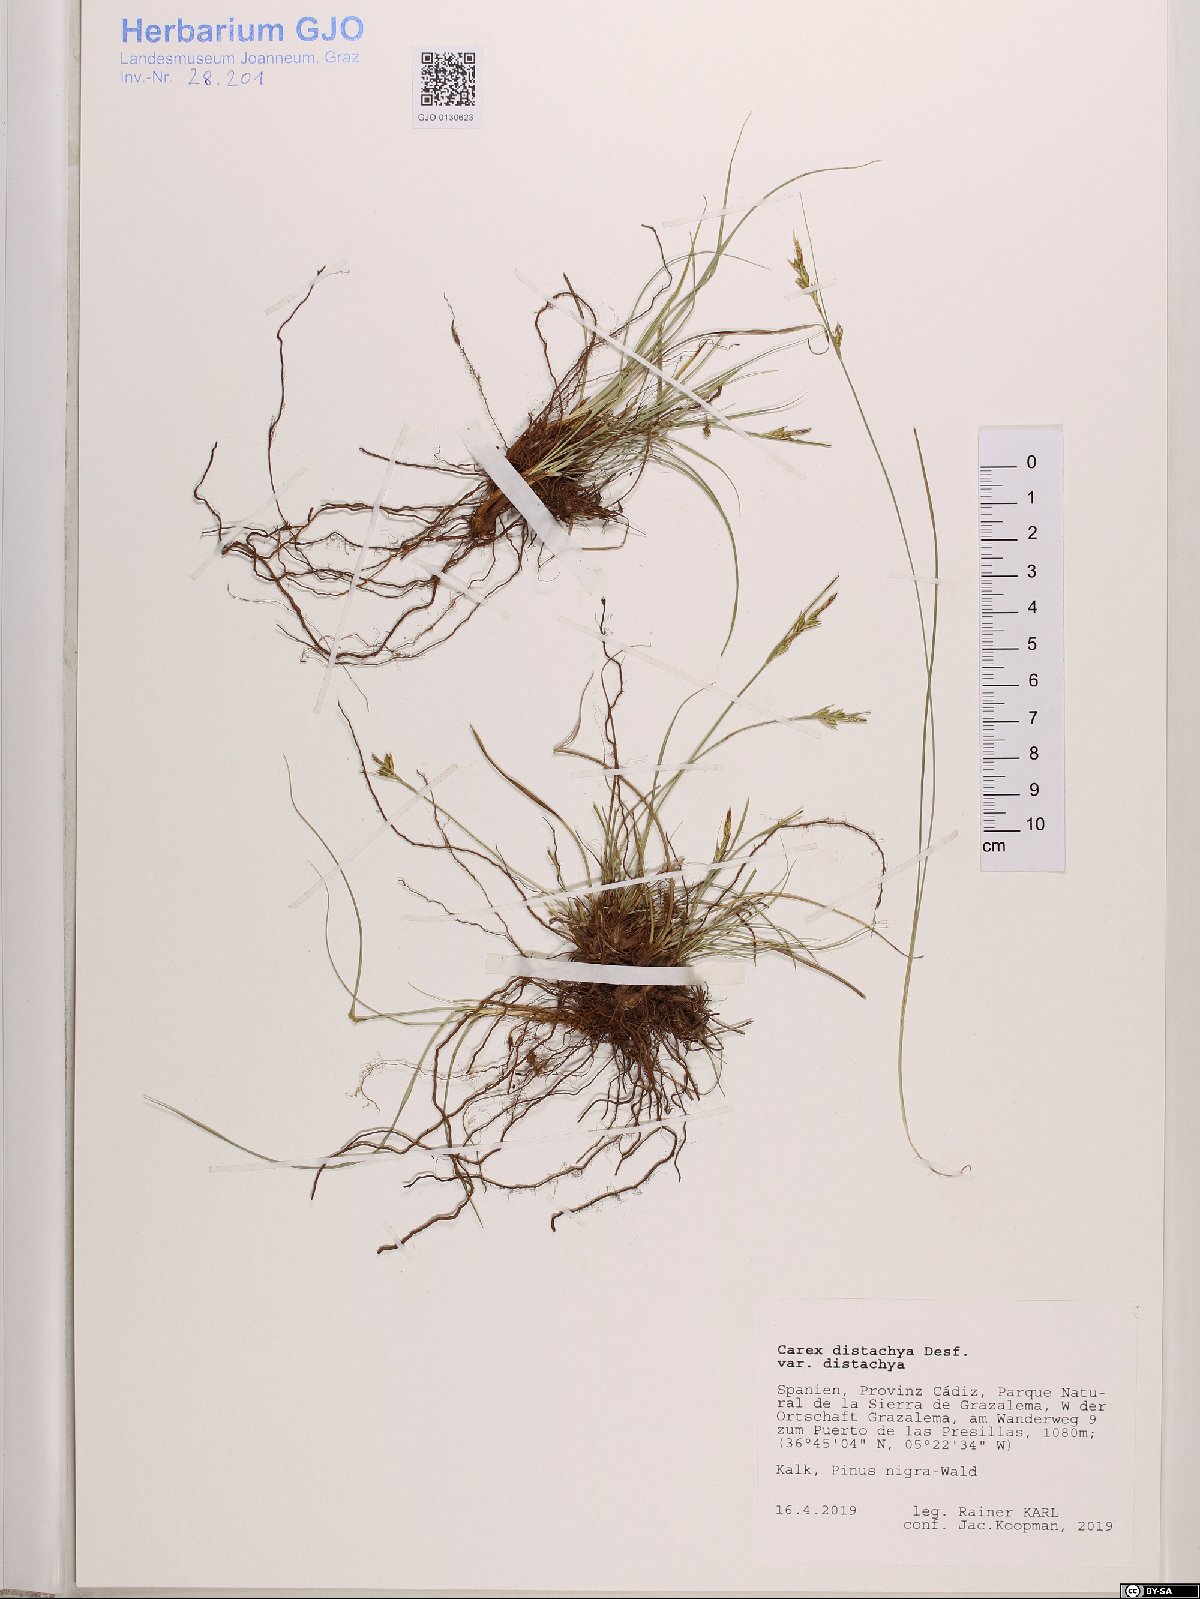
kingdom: Plantae
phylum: Tracheophyta
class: Liliopsida
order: Poales
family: Cyperaceae
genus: Carex
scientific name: Carex distachya
